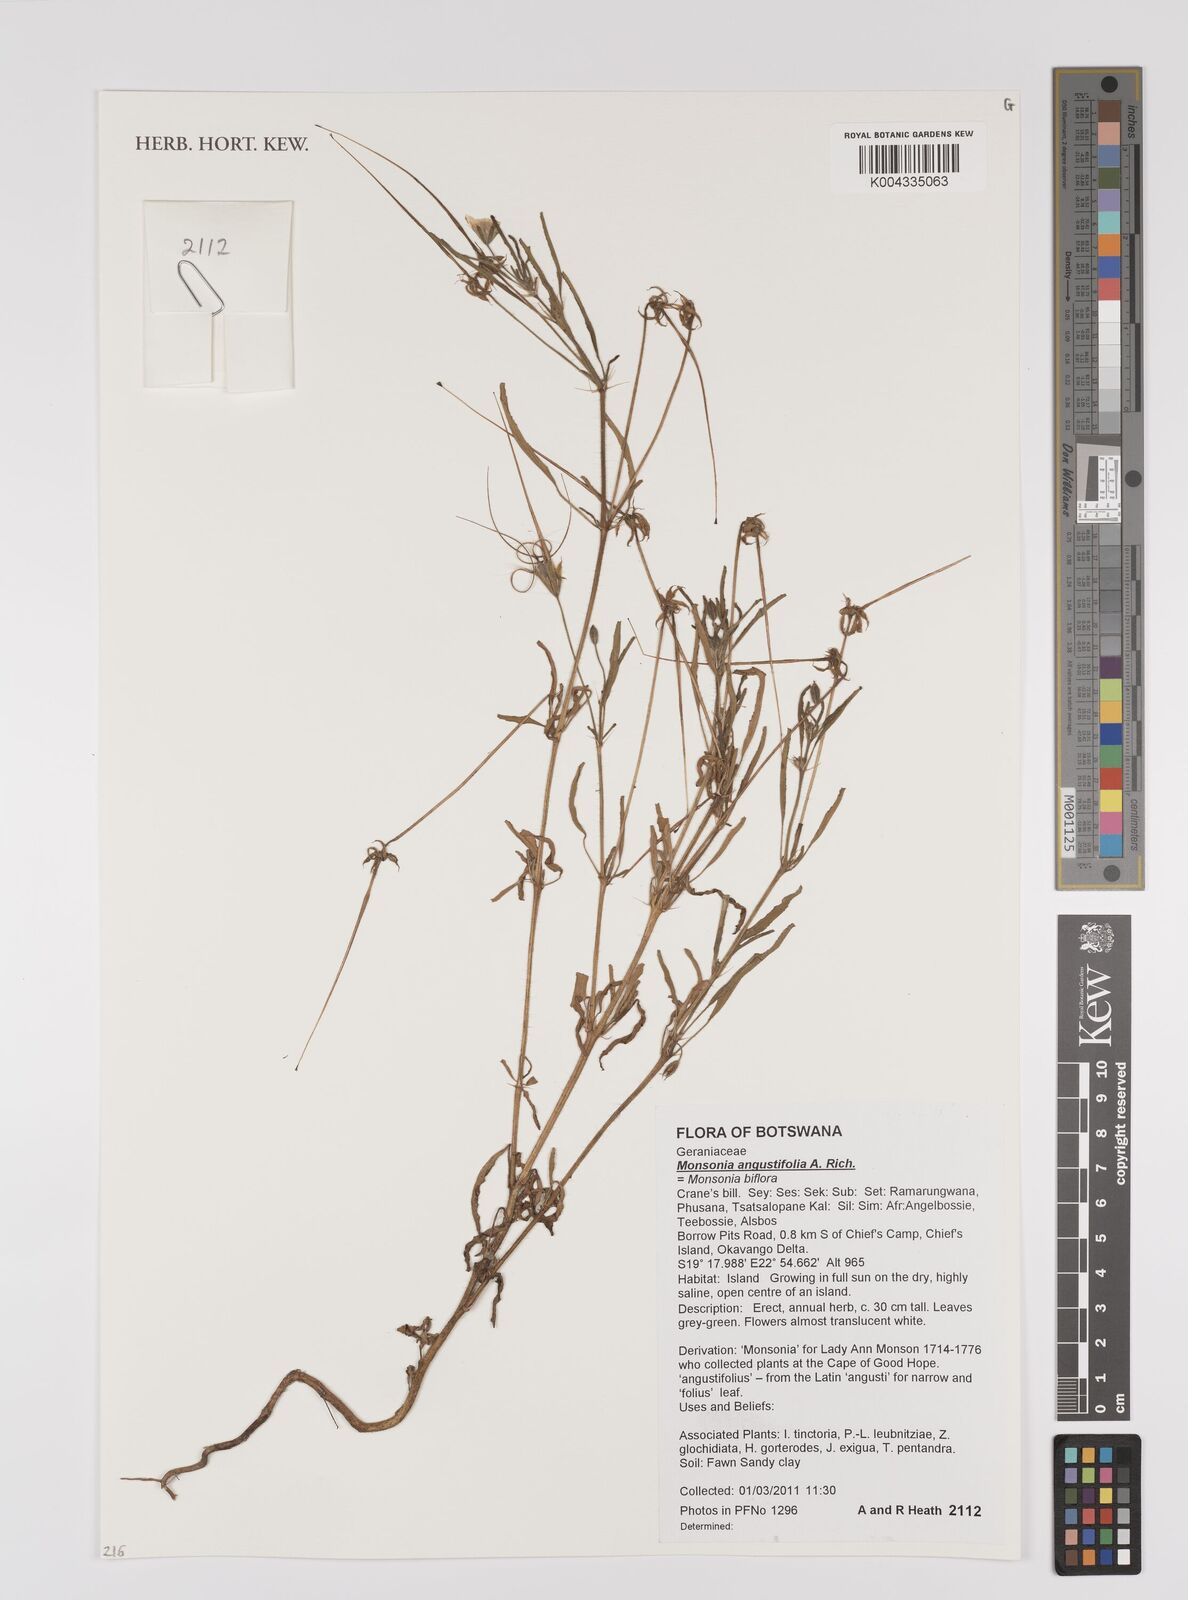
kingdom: Plantae
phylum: Tracheophyta
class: Magnoliopsida
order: Geraniales
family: Geraniaceae
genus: Monsonia
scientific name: Monsonia angustifolia
